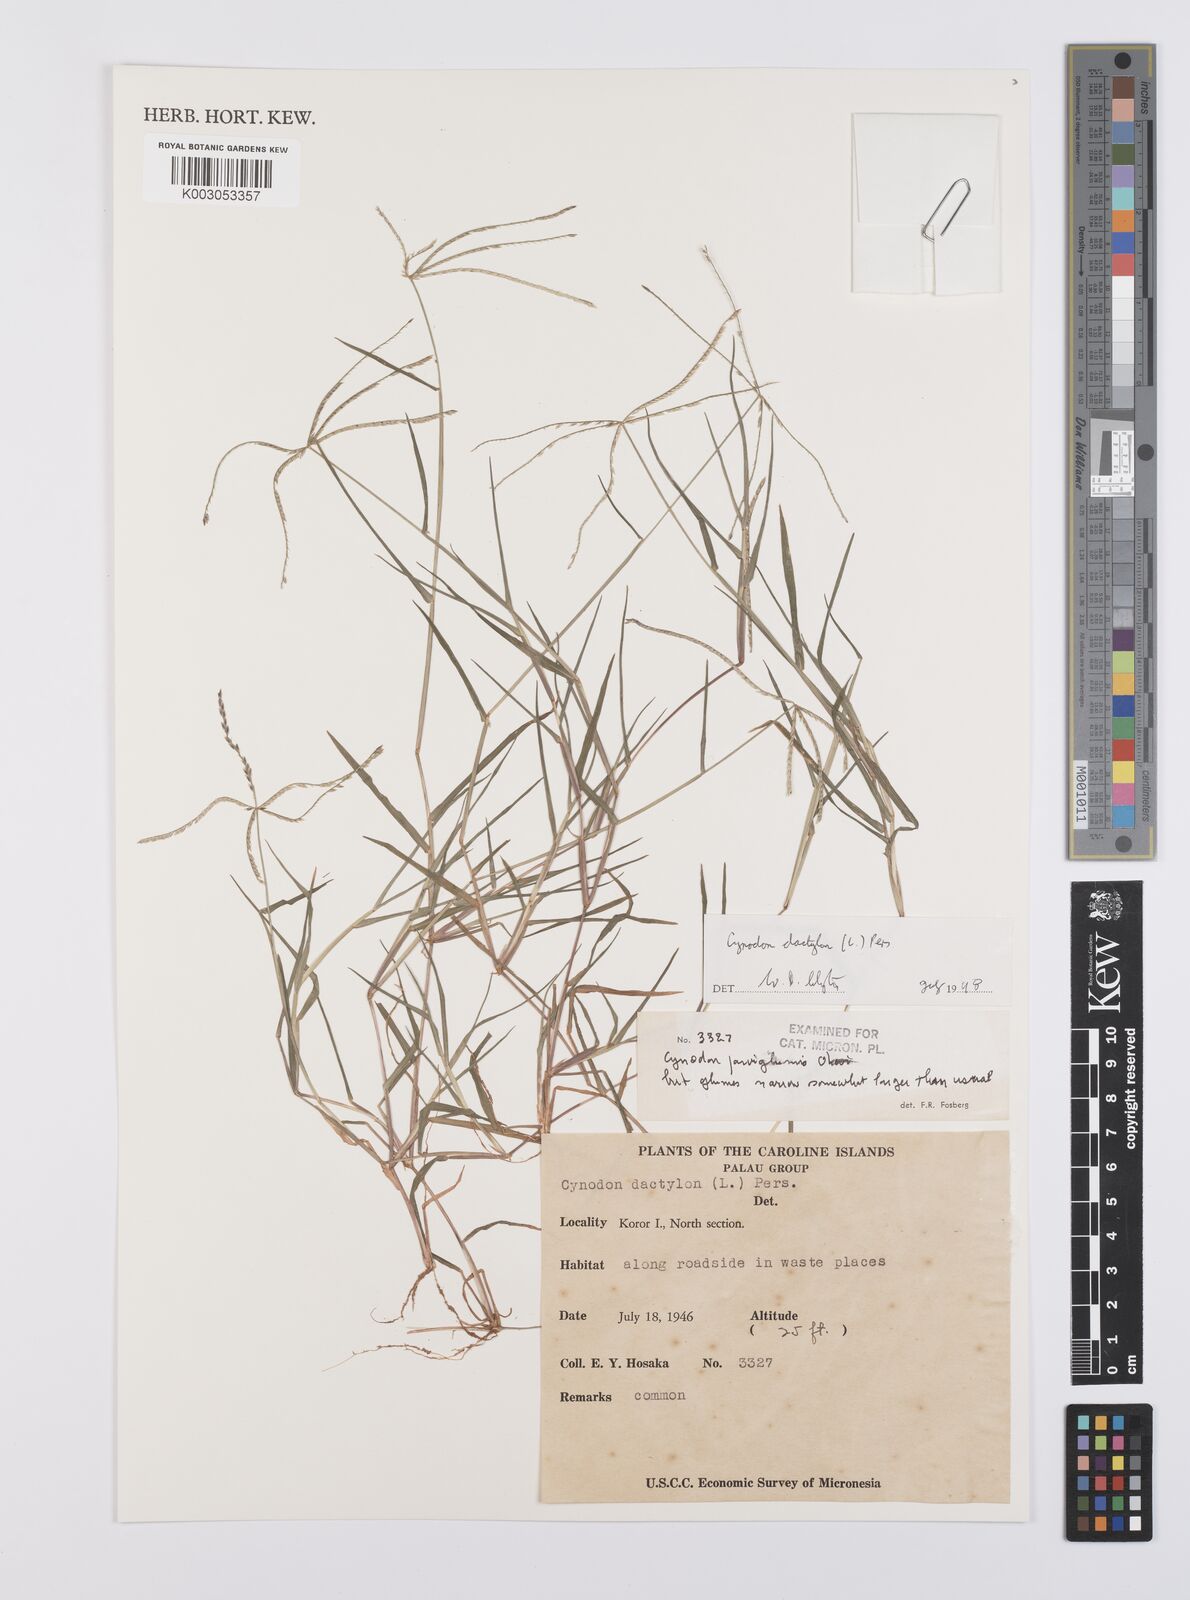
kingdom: Plantae
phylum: Tracheophyta
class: Liliopsida
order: Poales
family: Poaceae
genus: Cynodon
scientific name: Cynodon dactylon
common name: Bermuda grass
